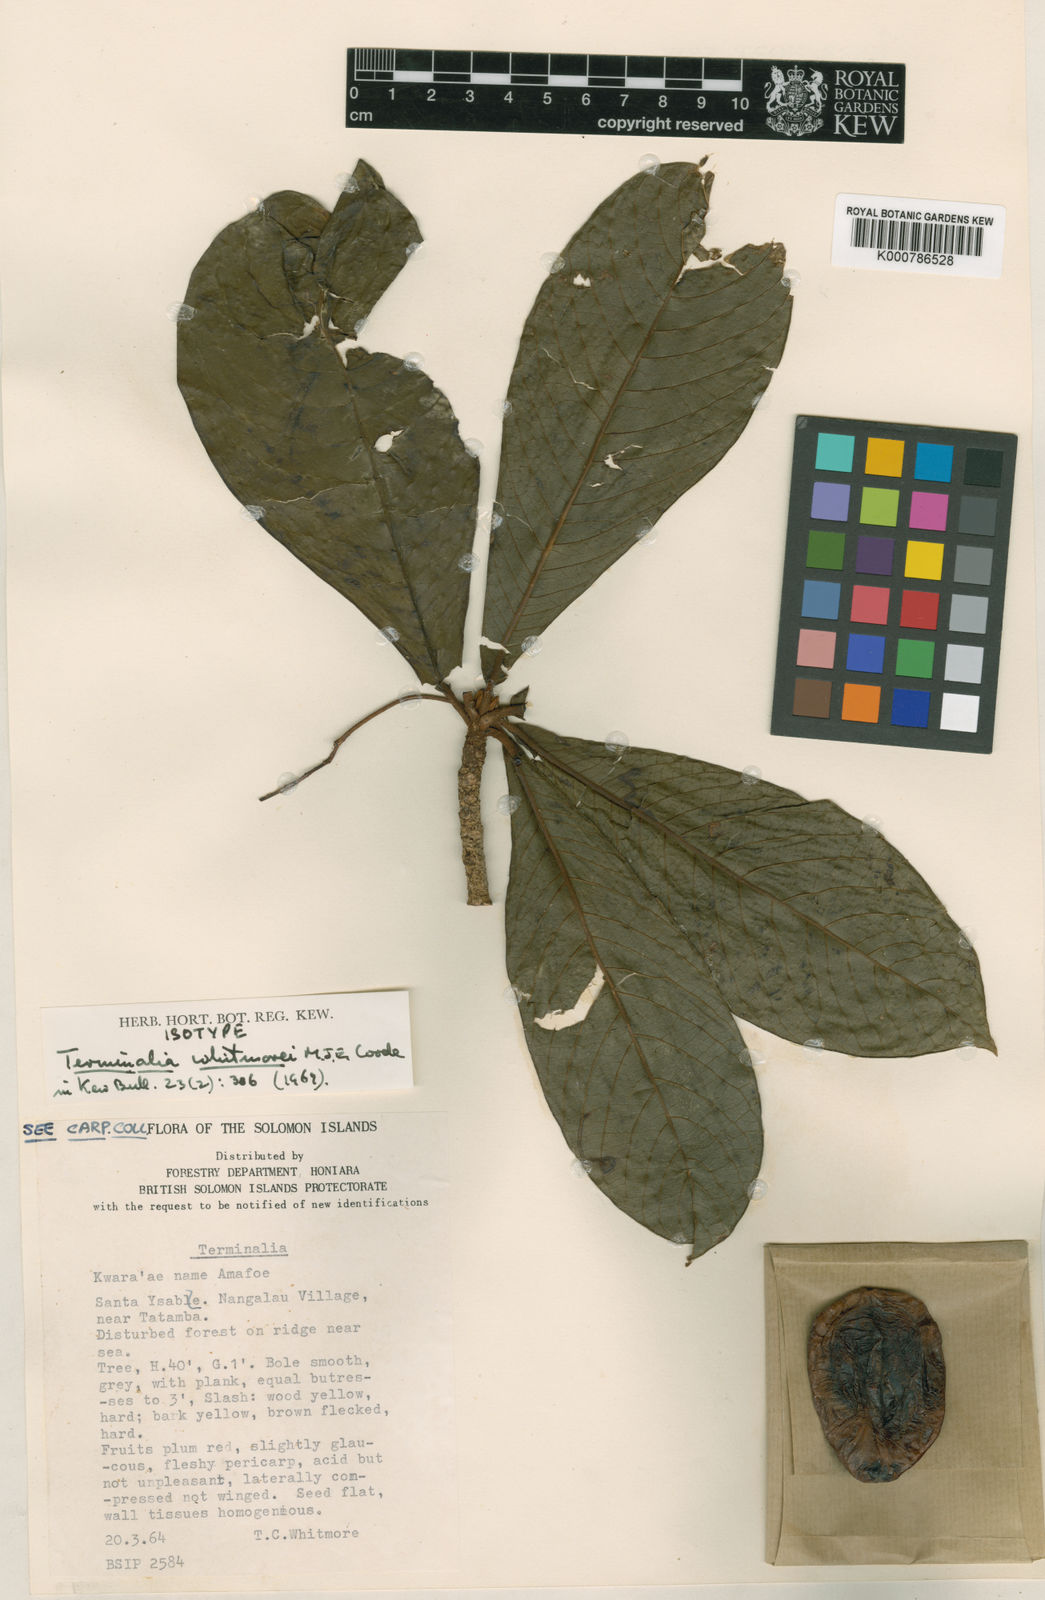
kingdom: Plantae
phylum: Tracheophyta
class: Magnoliopsida
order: Myrtales
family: Combretaceae
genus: Terminalia
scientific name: Terminalia whitmorei
